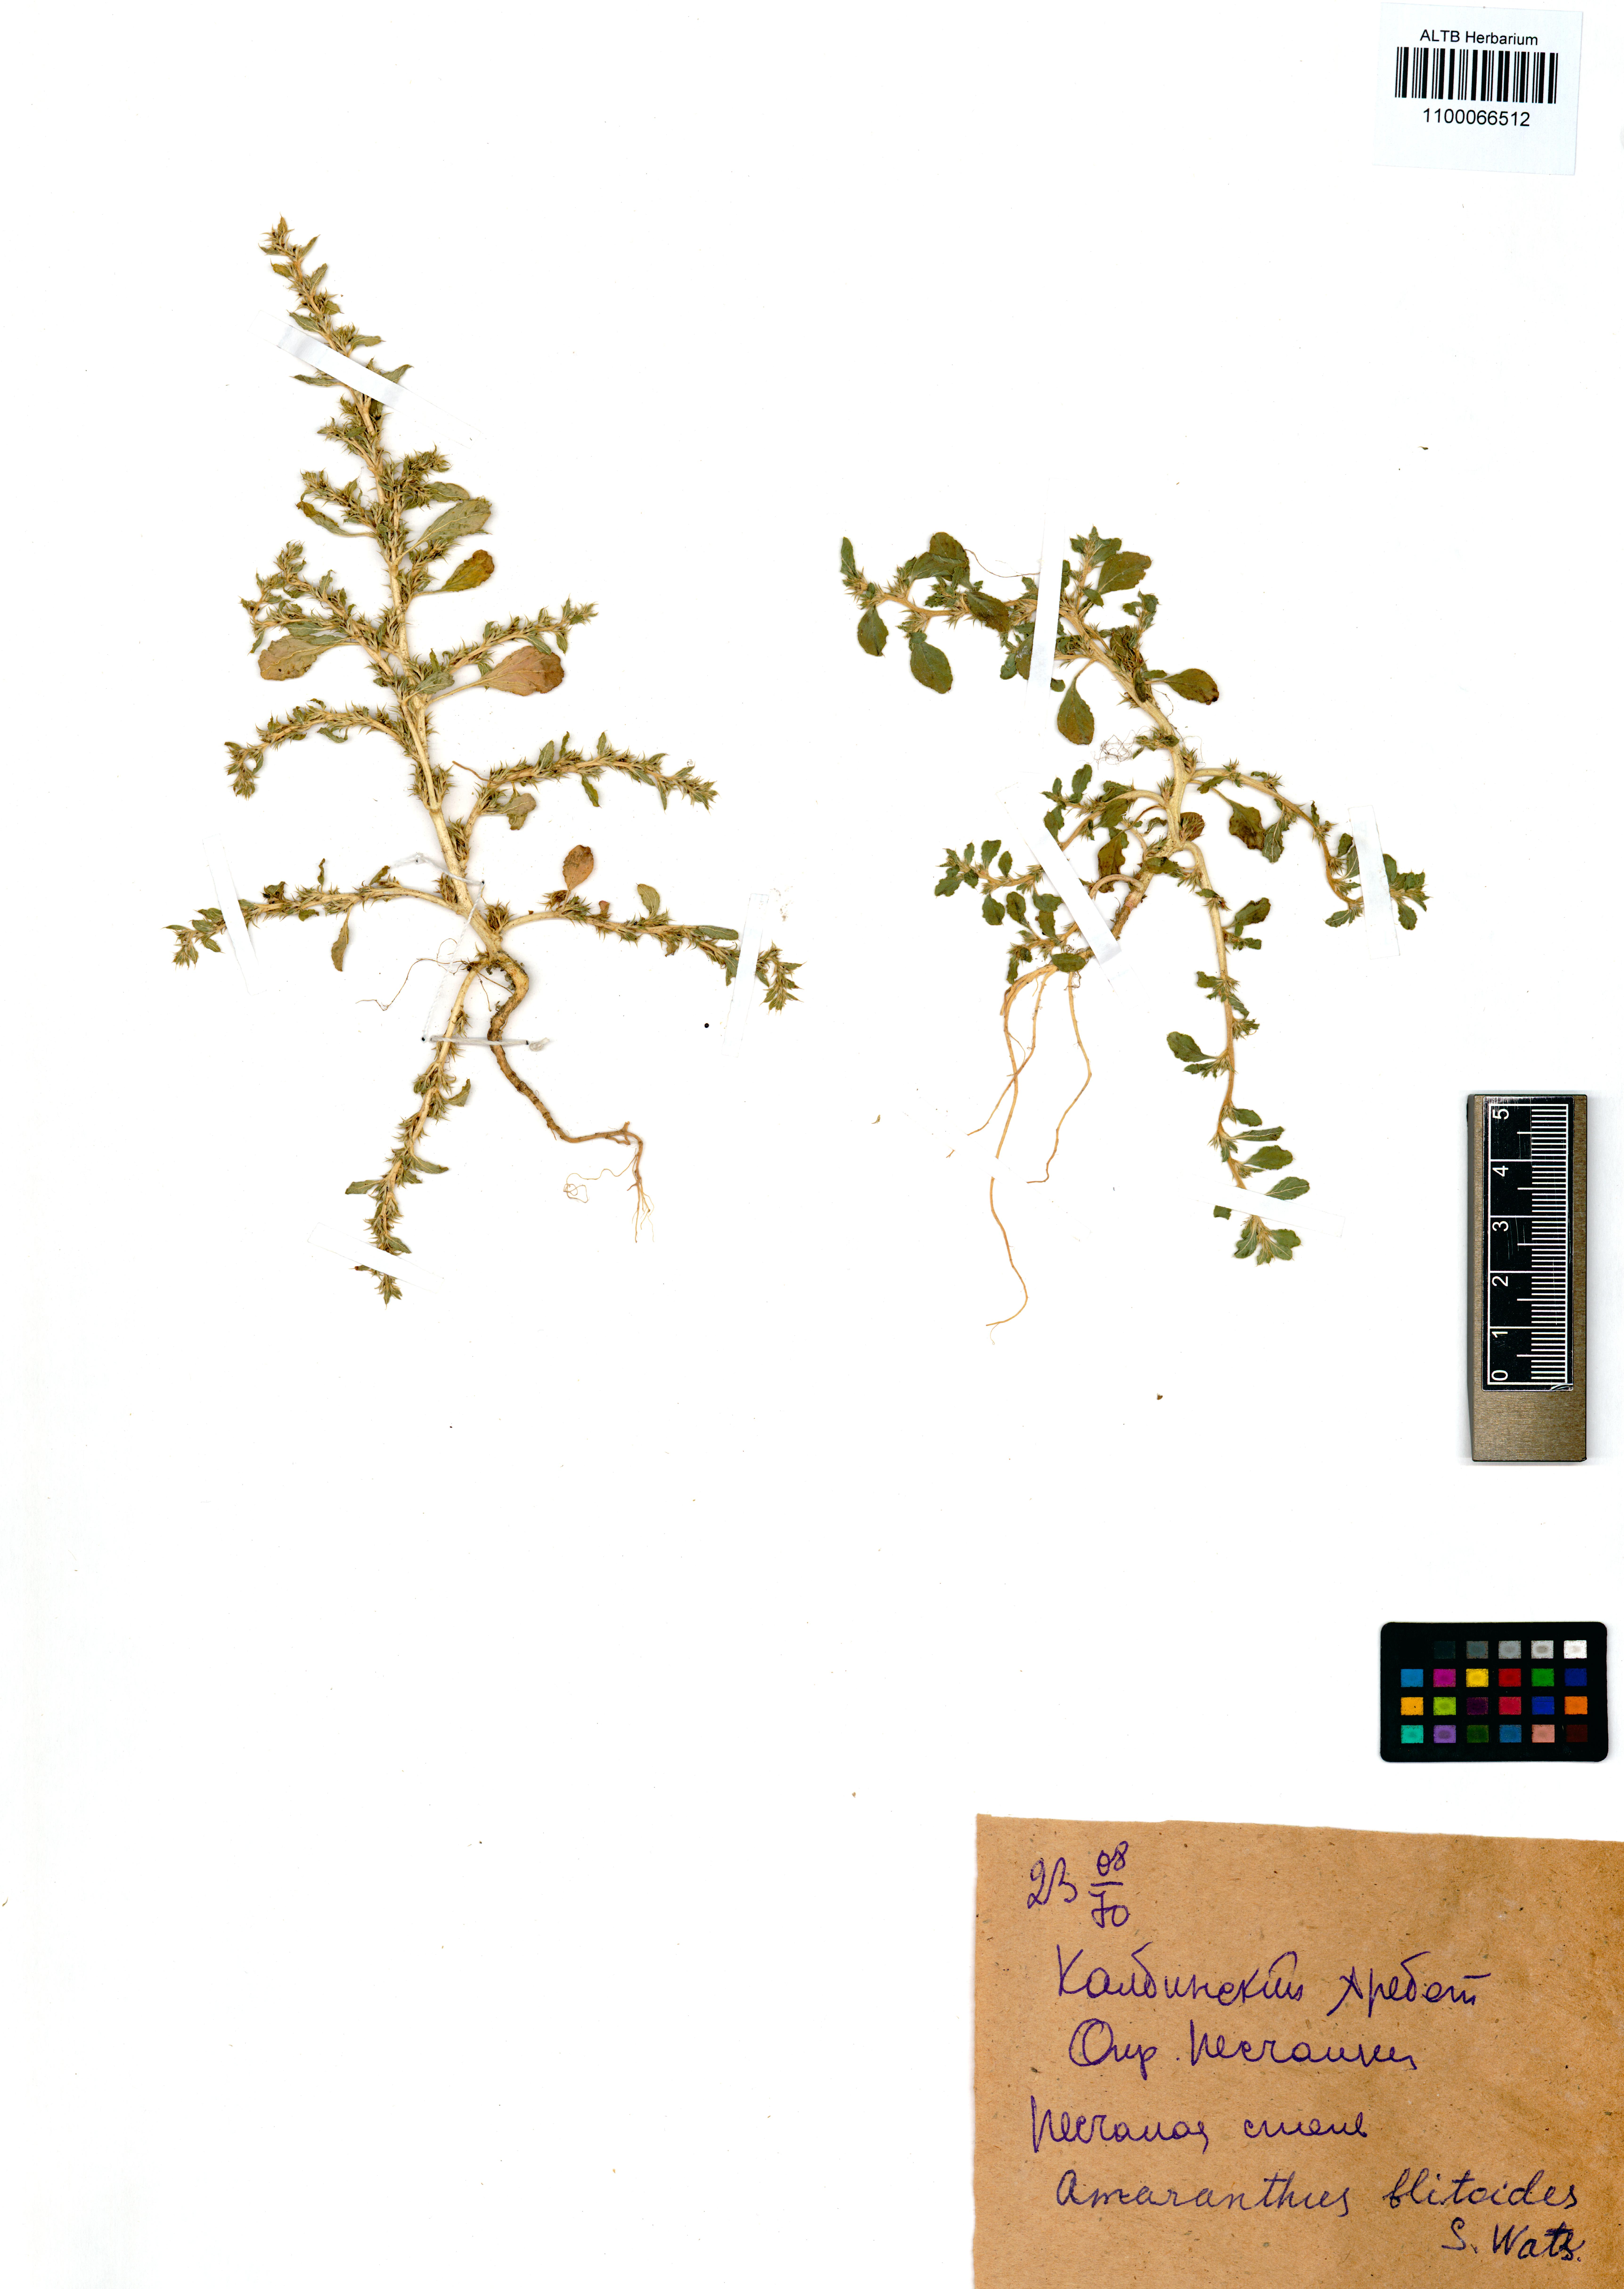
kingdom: Plantae
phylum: Tracheophyta
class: Magnoliopsida
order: Caryophyllales
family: Amaranthaceae
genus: Amaranthus
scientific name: Amaranthus blitoides
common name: Prostrate pigweed
